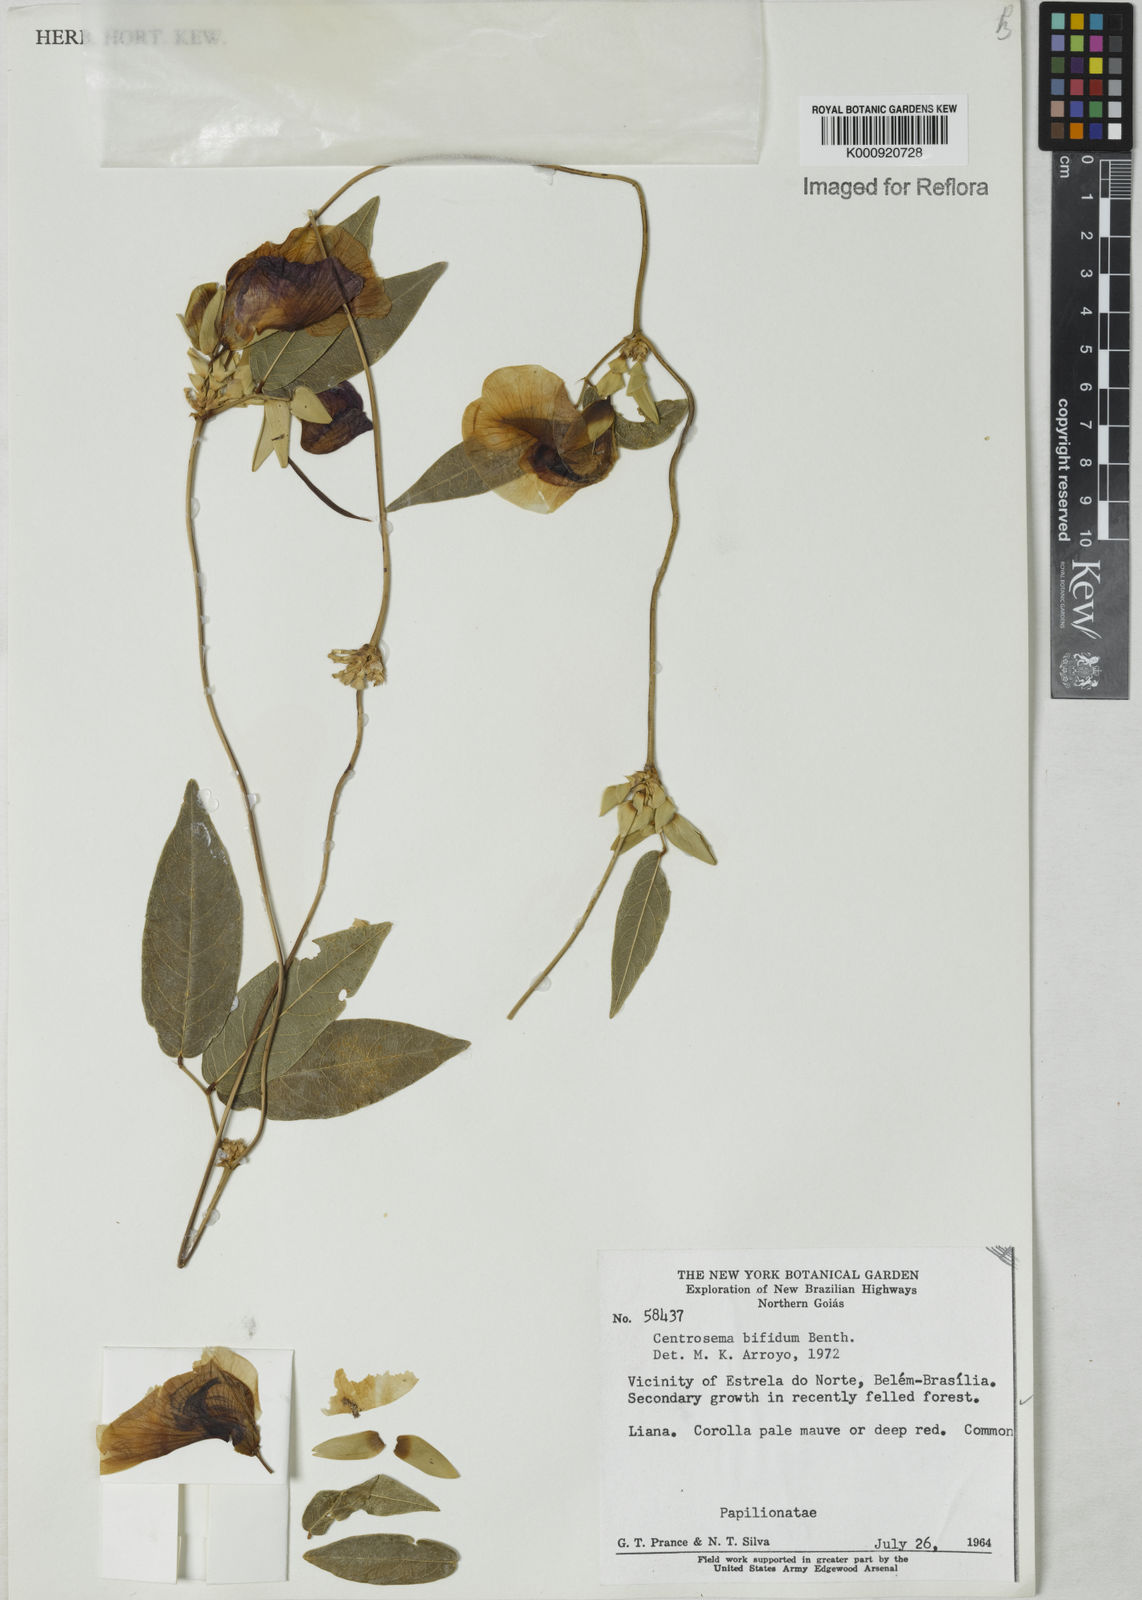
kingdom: Plantae
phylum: Tracheophyta
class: Magnoliopsida
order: Fabales
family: Fabaceae
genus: Centrosema
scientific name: Centrosema bifidum
